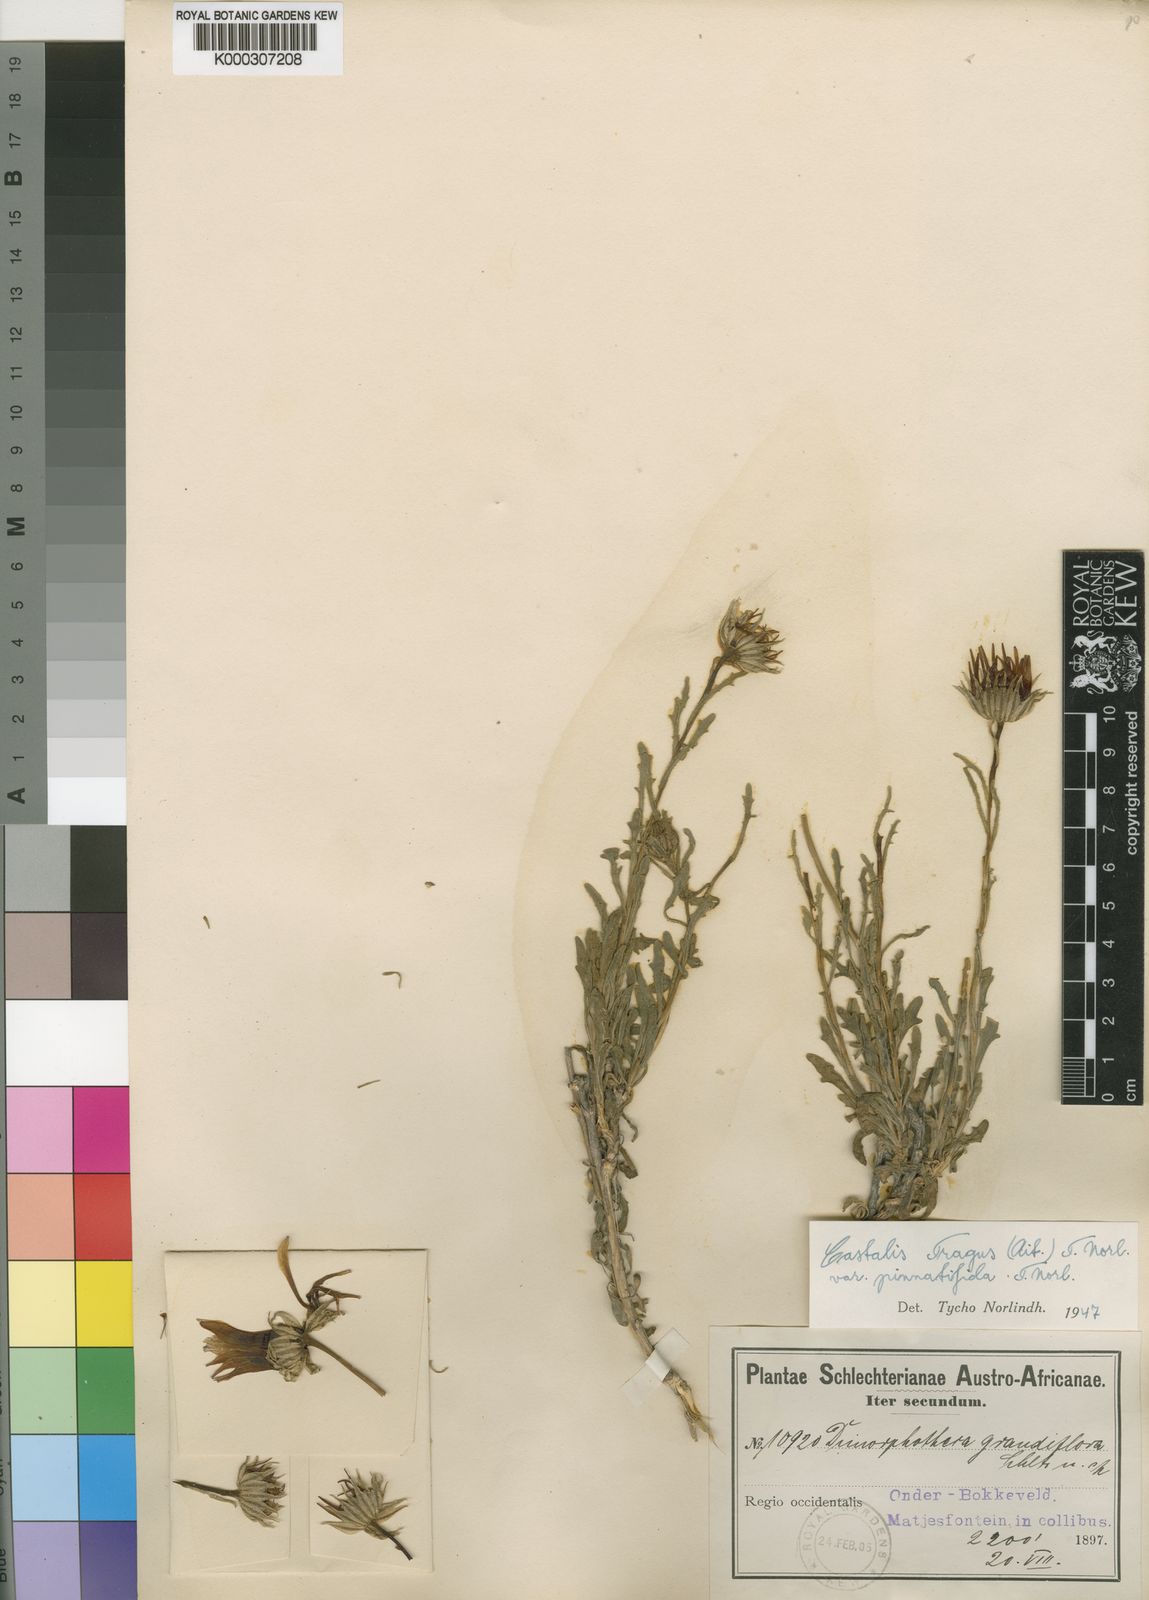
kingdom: Plantae
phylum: Tracheophyta
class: Magnoliopsida
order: Asterales
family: Asteraceae
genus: Dimorphotheca
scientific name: Dimorphotheca tragus
